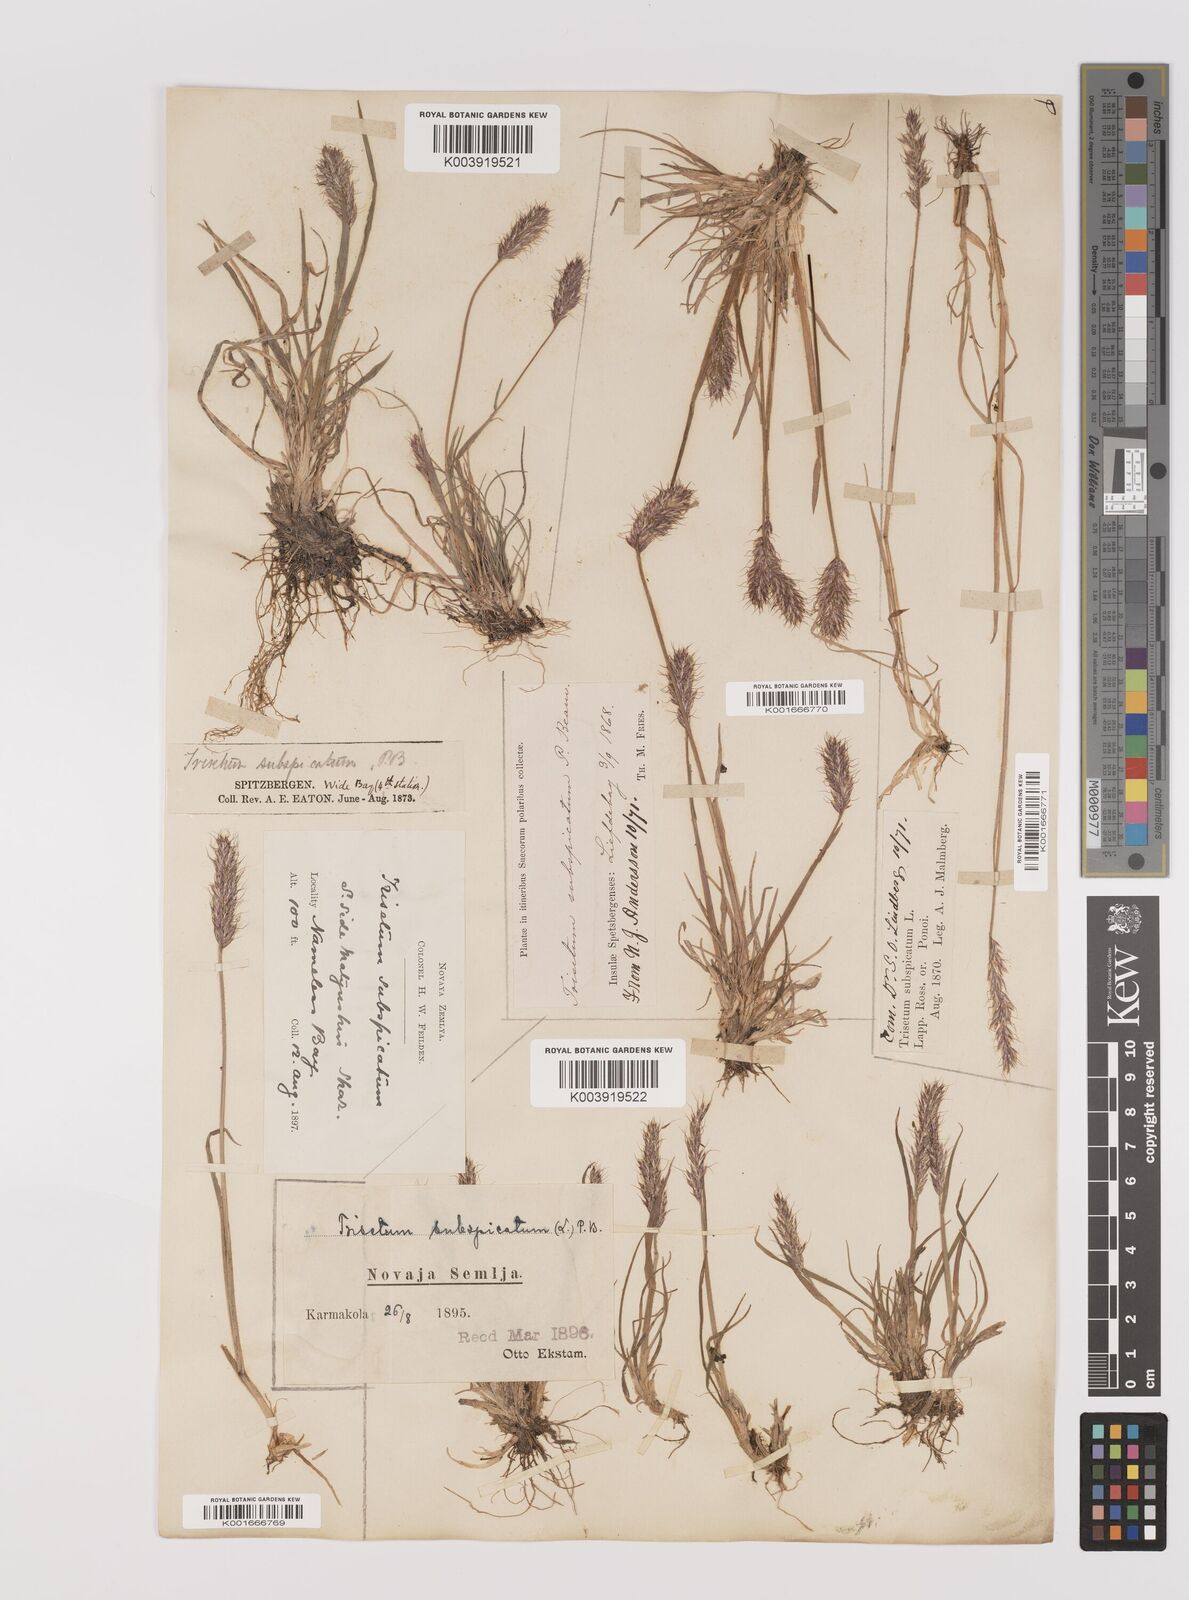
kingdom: Plantae
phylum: Tracheophyta
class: Liliopsida
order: Poales
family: Poaceae
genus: Koeleria
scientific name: Koeleria spicata
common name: Mountain trisetum
